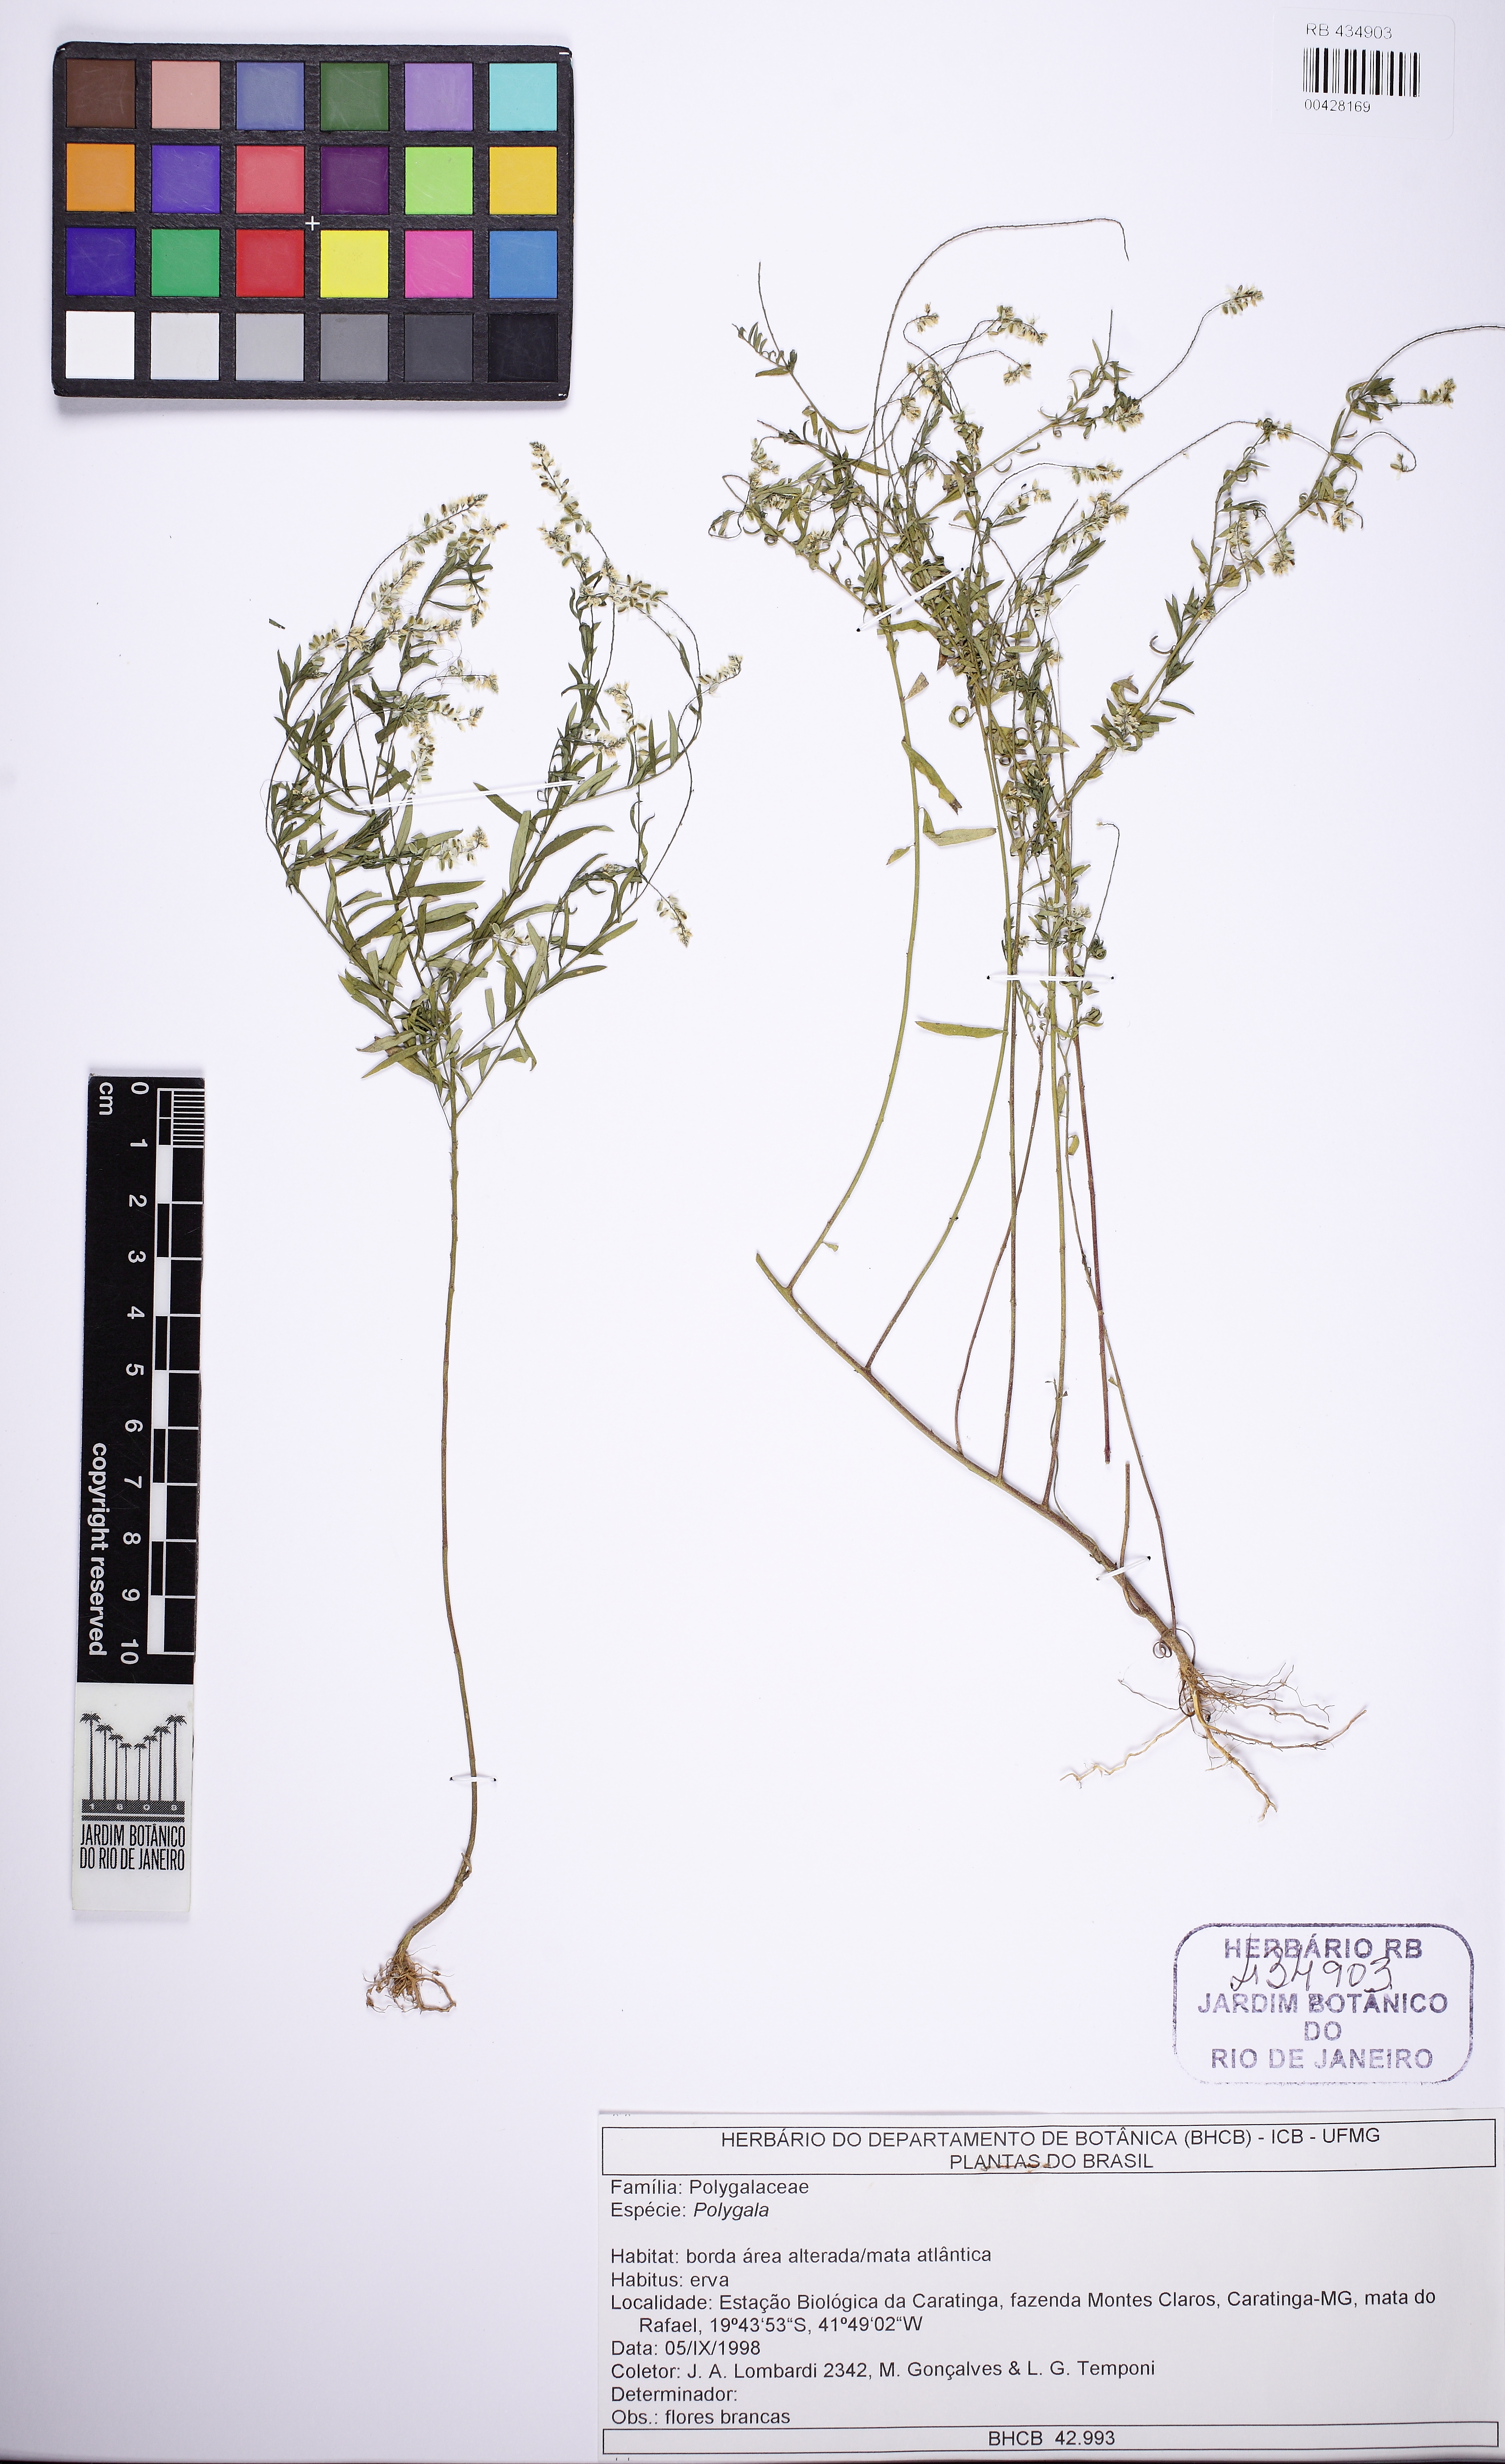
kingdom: Plantae
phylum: Tracheophyta
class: Magnoliopsida
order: Fabales
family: Polygalaceae
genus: Polygala
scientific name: Polygala paniculata
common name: Orosne
